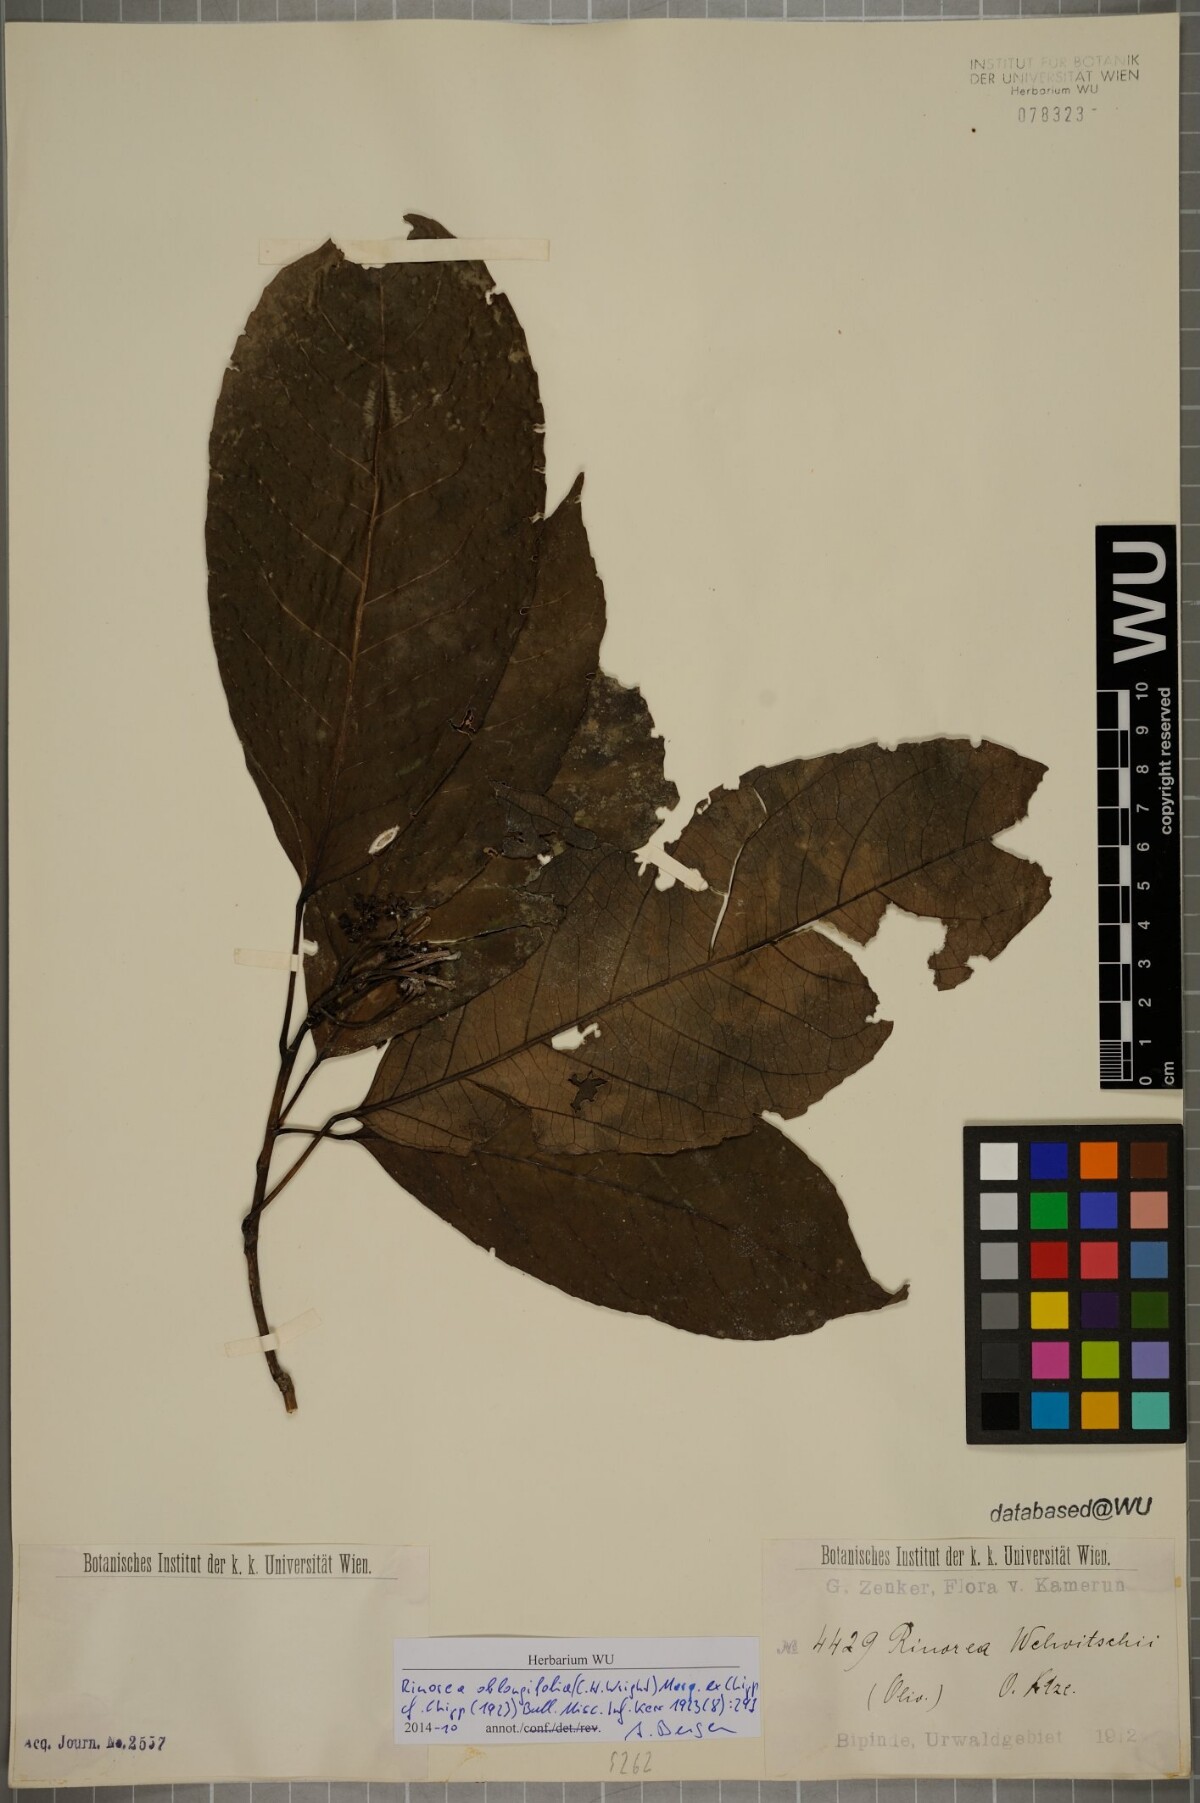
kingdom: Plantae
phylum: Tracheophyta
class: Magnoliopsida
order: Apiales
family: Pittosporaceae
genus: Marianthus
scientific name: Marianthus coeruleopunctatus
